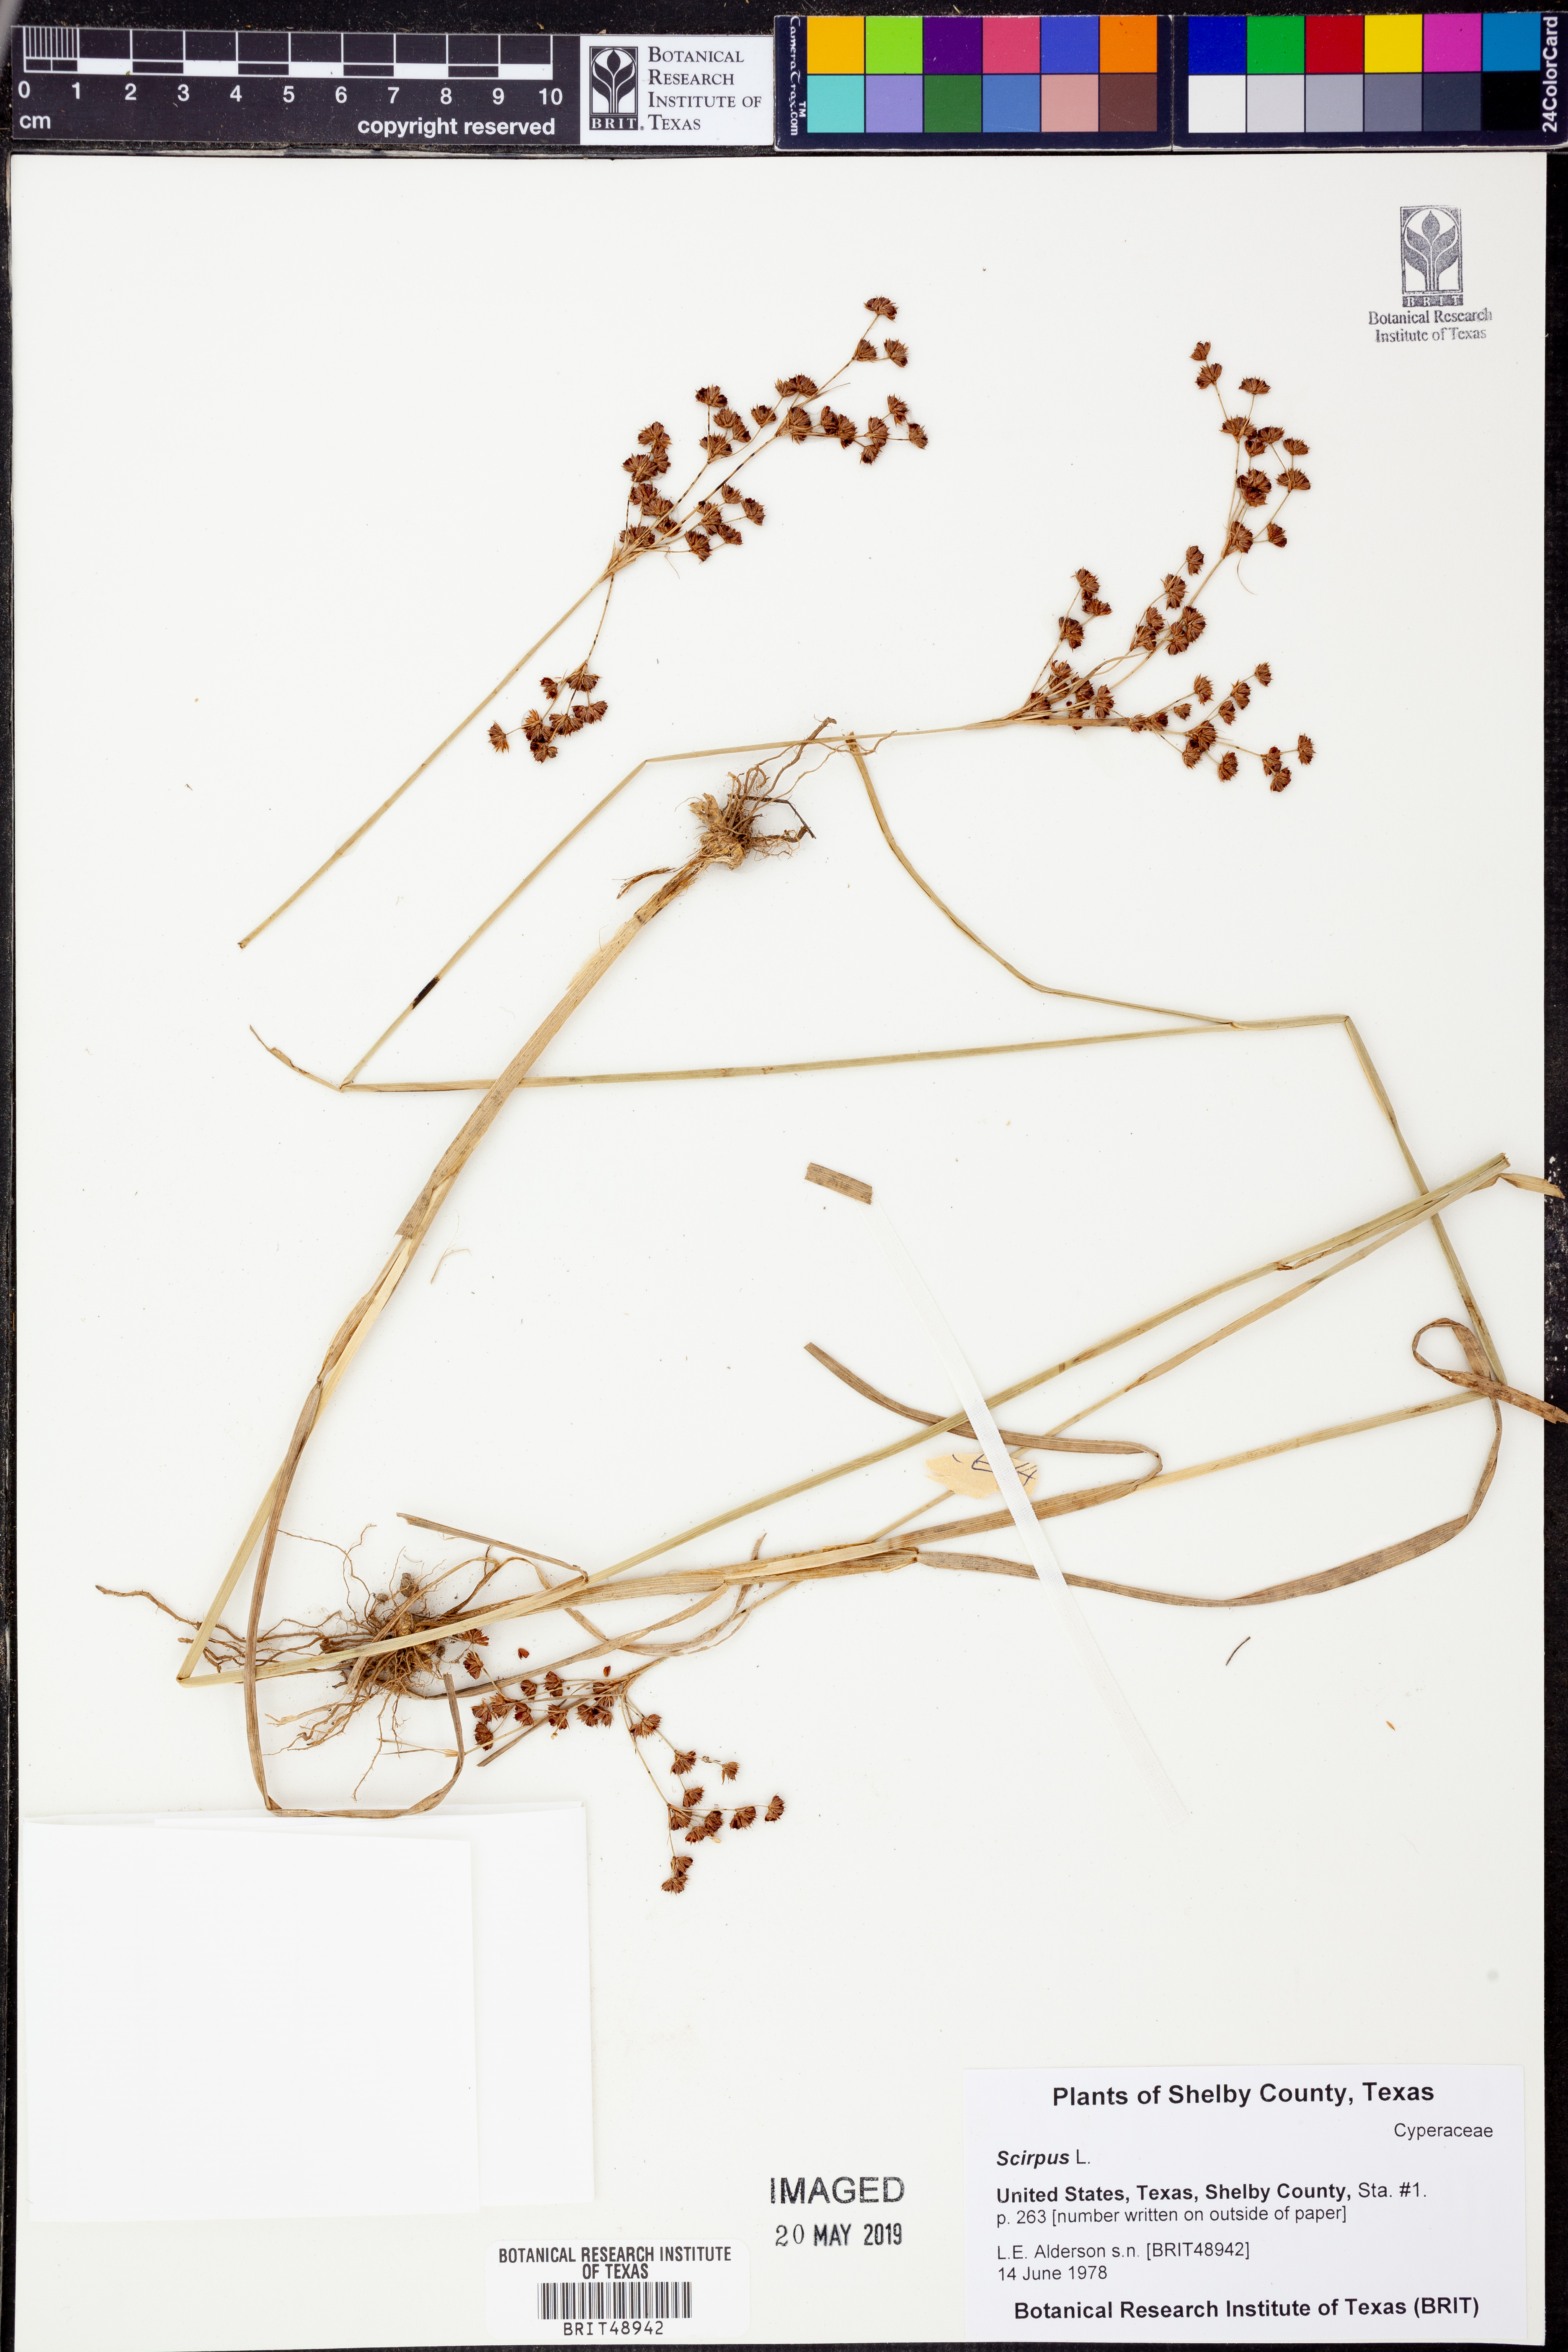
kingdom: Plantae
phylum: Tracheophyta
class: Liliopsida
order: Poales
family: Cyperaceae
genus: Scirpus
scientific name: Scirpus
